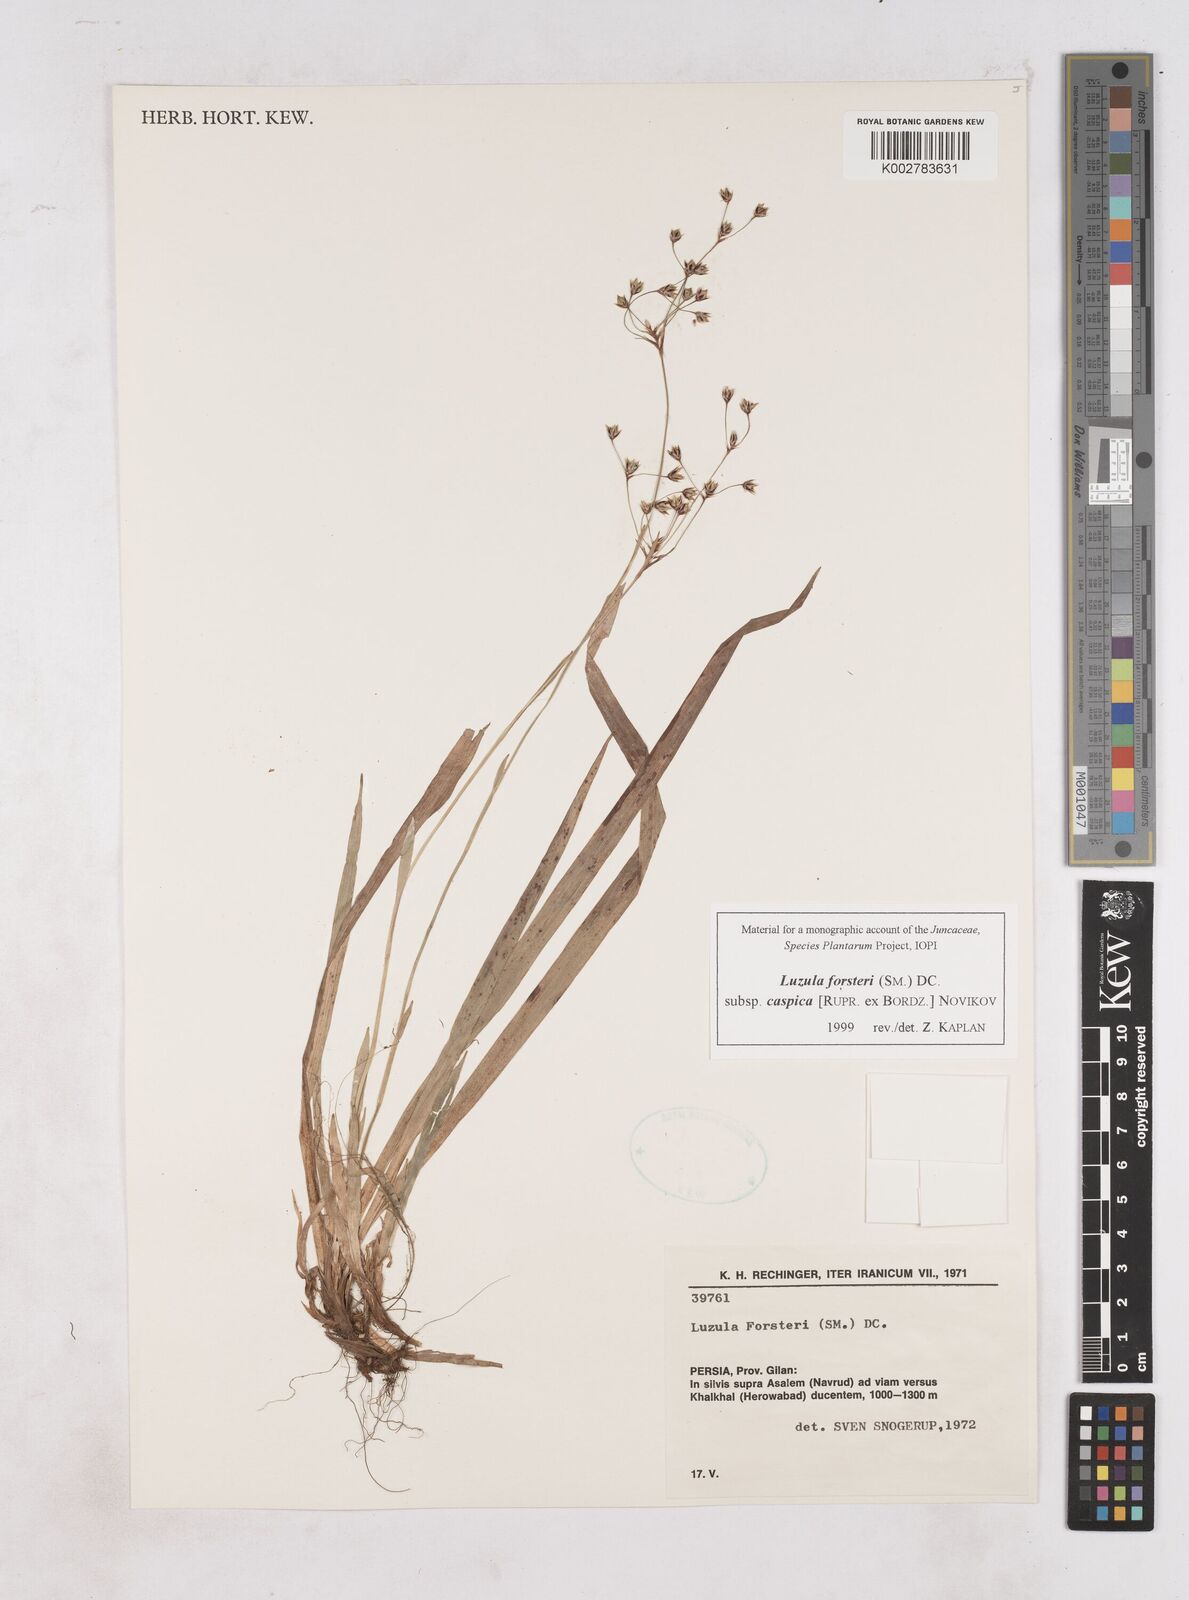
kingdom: Plantae
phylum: Tracheophyta
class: Liliopsida
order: Poales
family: Juncaceae
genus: Luzula
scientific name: Luzula forsteri
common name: Southern wood-rush
